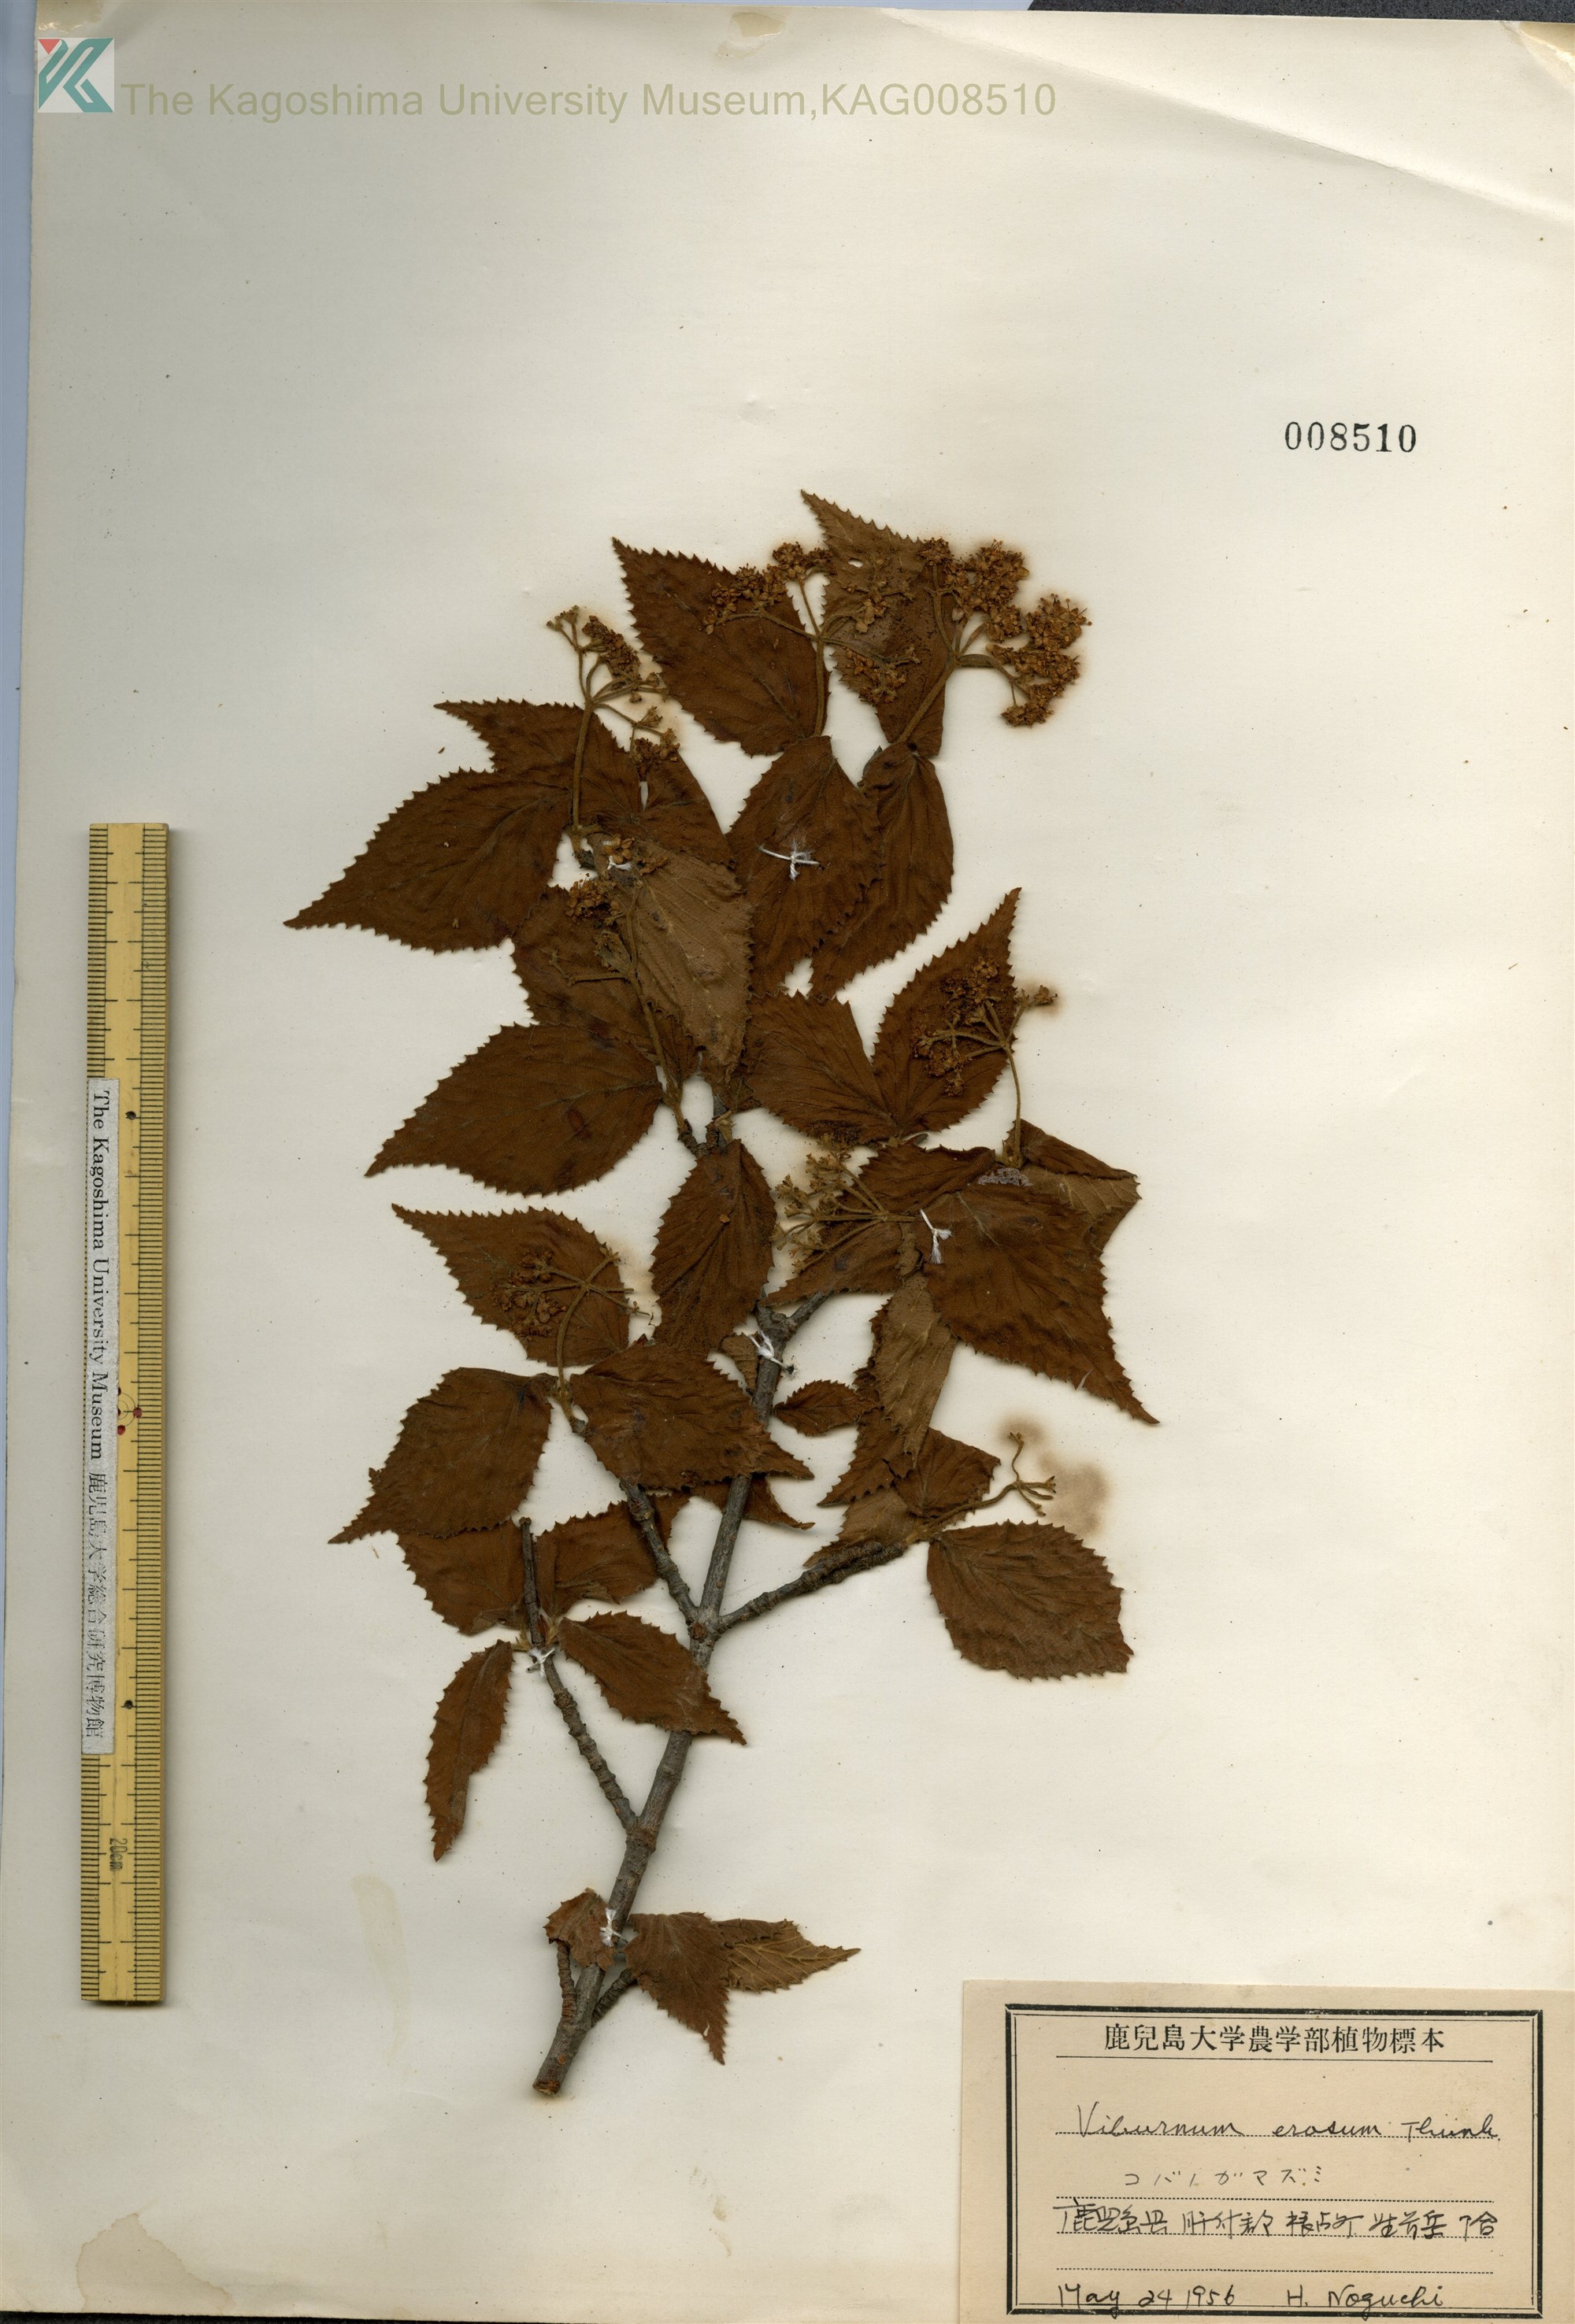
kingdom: Plantae
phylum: Tracheophyta
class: Magnoliopsida
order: Dipsacales
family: Viburnaceae
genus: Viburnum
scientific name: Viburnum erosum
